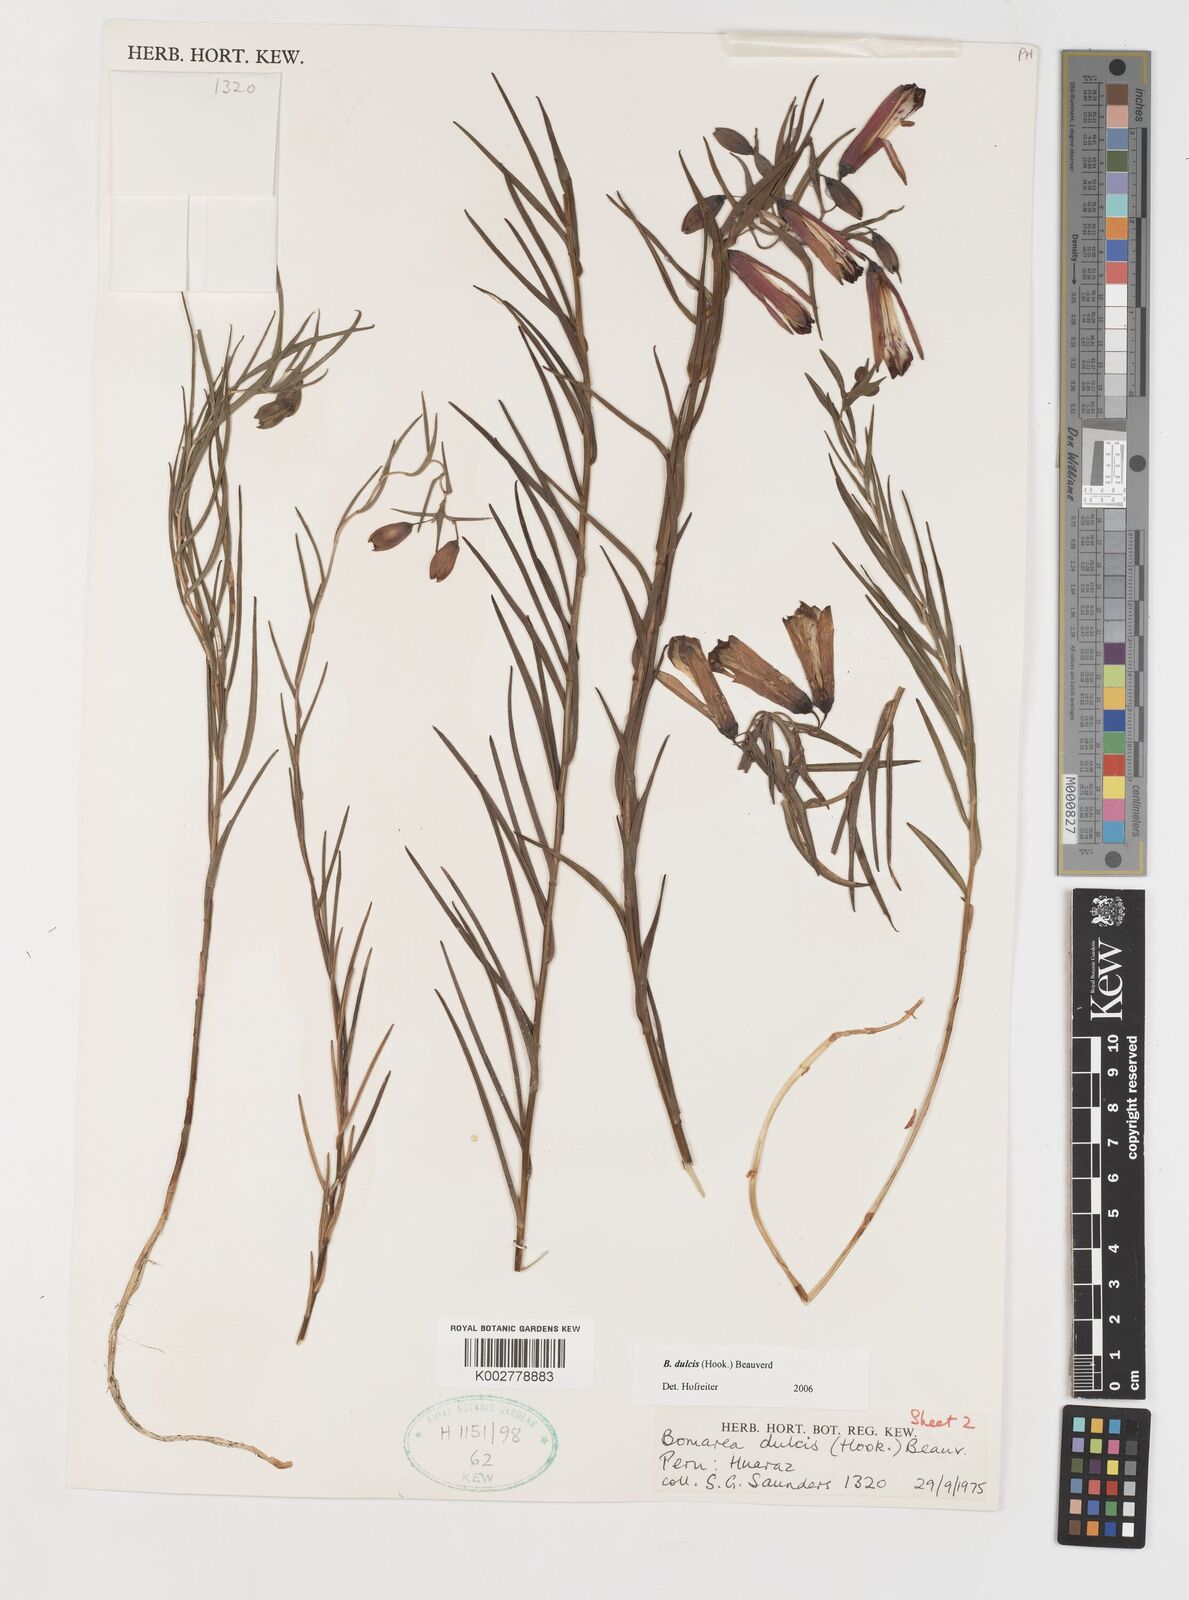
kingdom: Plantae
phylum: Tracheophyta
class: Liliopsida
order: Liliales
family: Alstroemeriaceae
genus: Bomarea
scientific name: Bomarea dulcis
